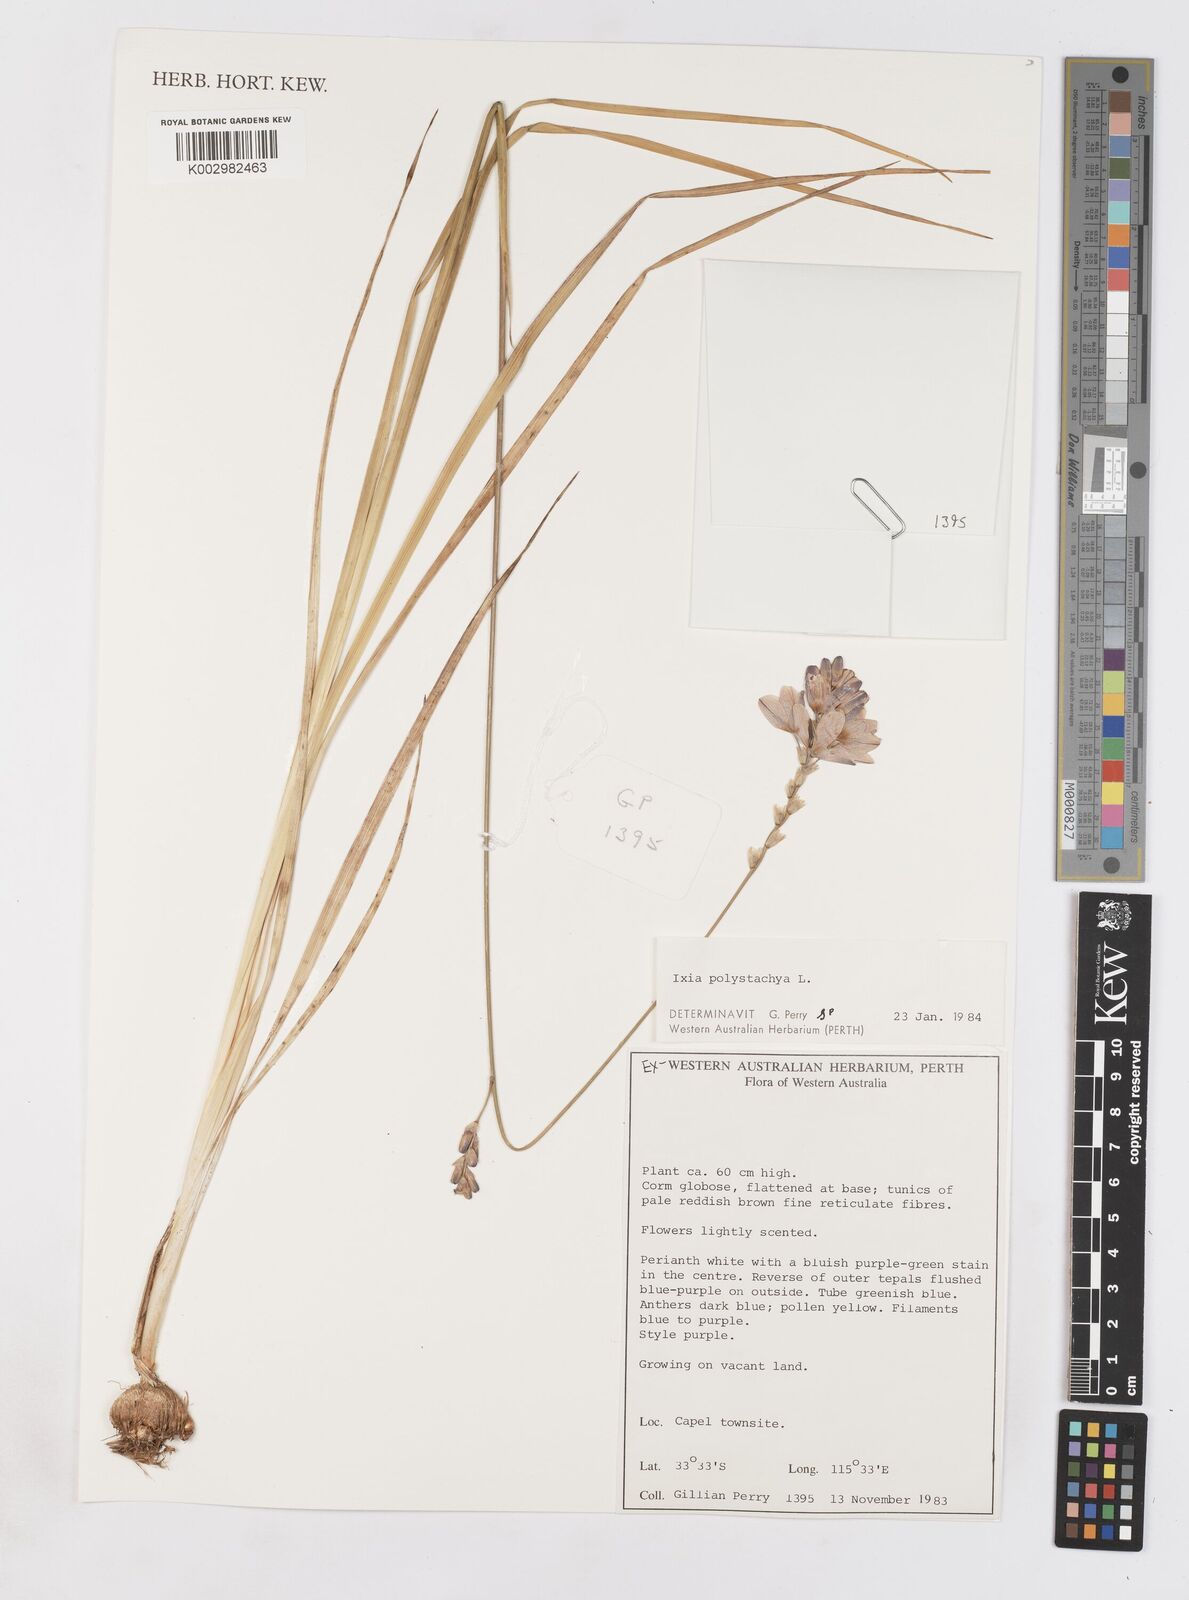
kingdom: Plantae
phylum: Tracheophyta
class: Liliopsida
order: Asparagales
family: Iridaceae
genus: Ixia
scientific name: Ixia polystachya
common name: White-and-yellow-flower cornlily
